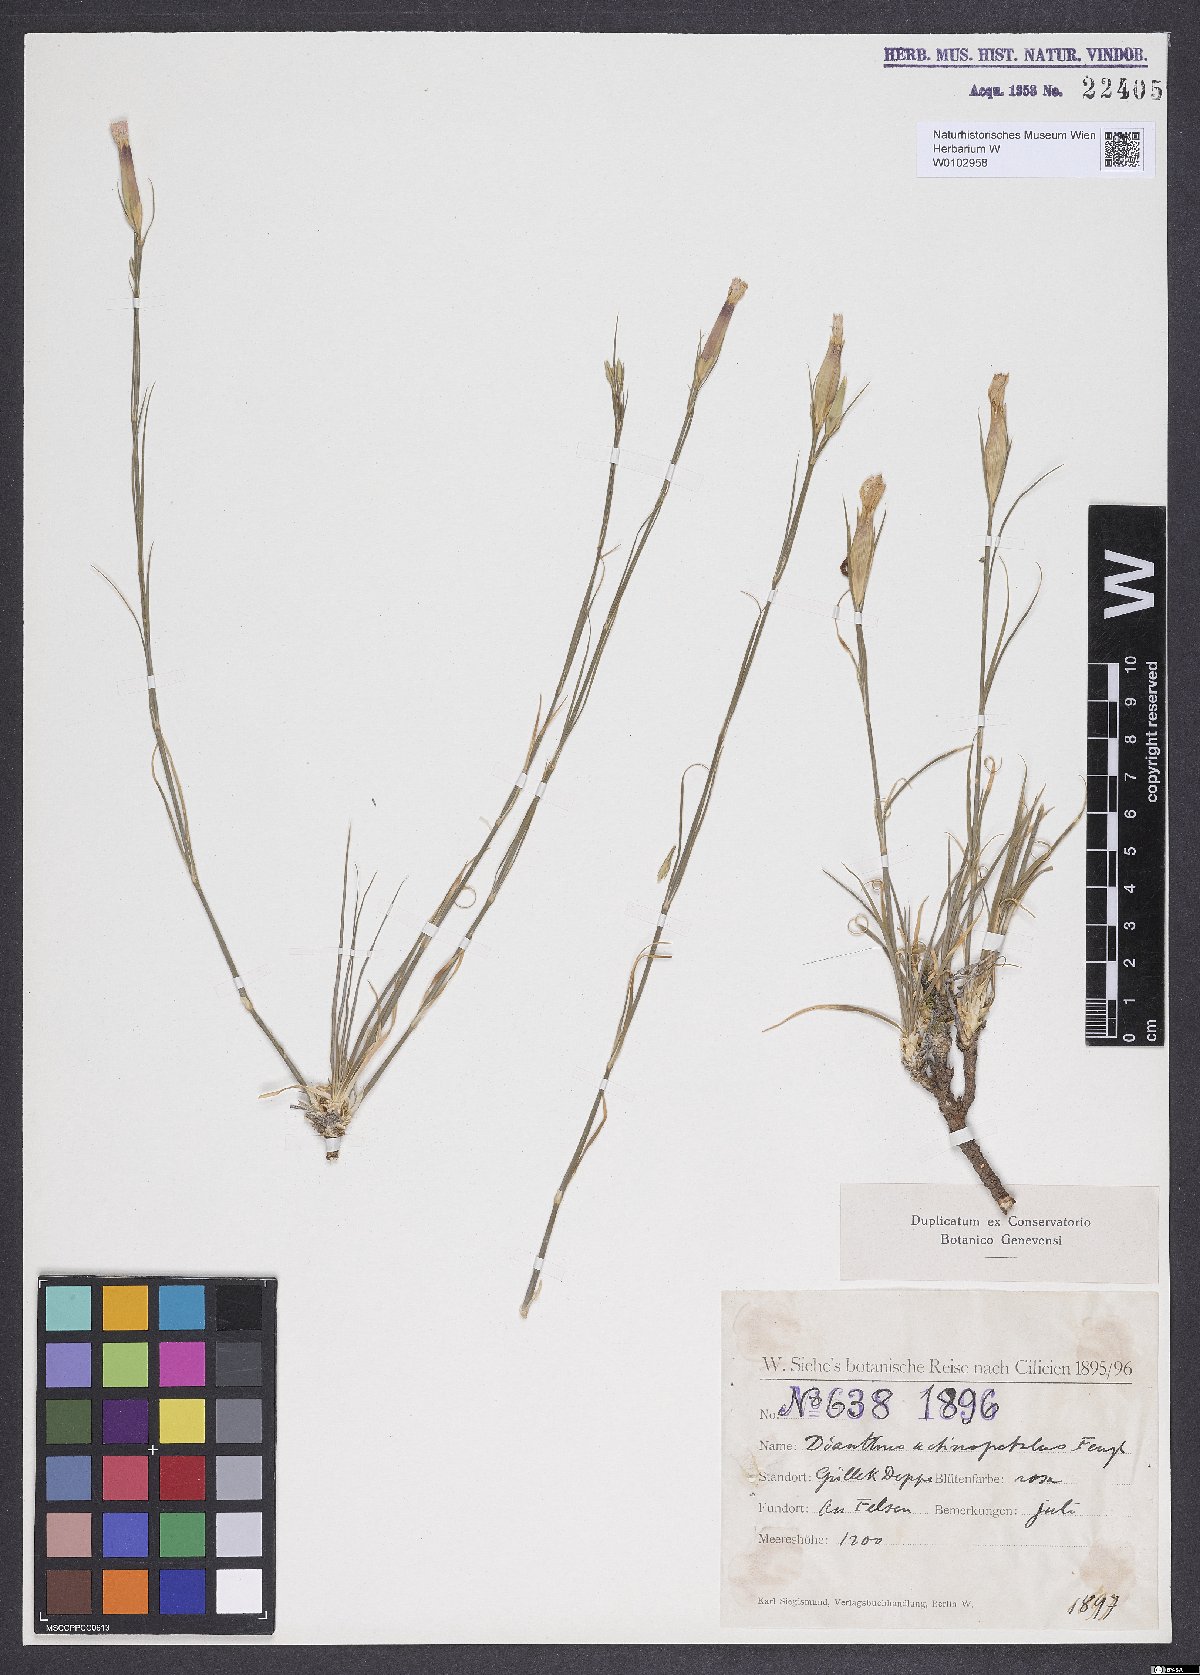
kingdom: Plantae
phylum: Tracheophyta
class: Magnoliopsida
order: Caryophyllales
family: Caryophyllaceae
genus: Dianthus
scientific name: Dianthus elegans
